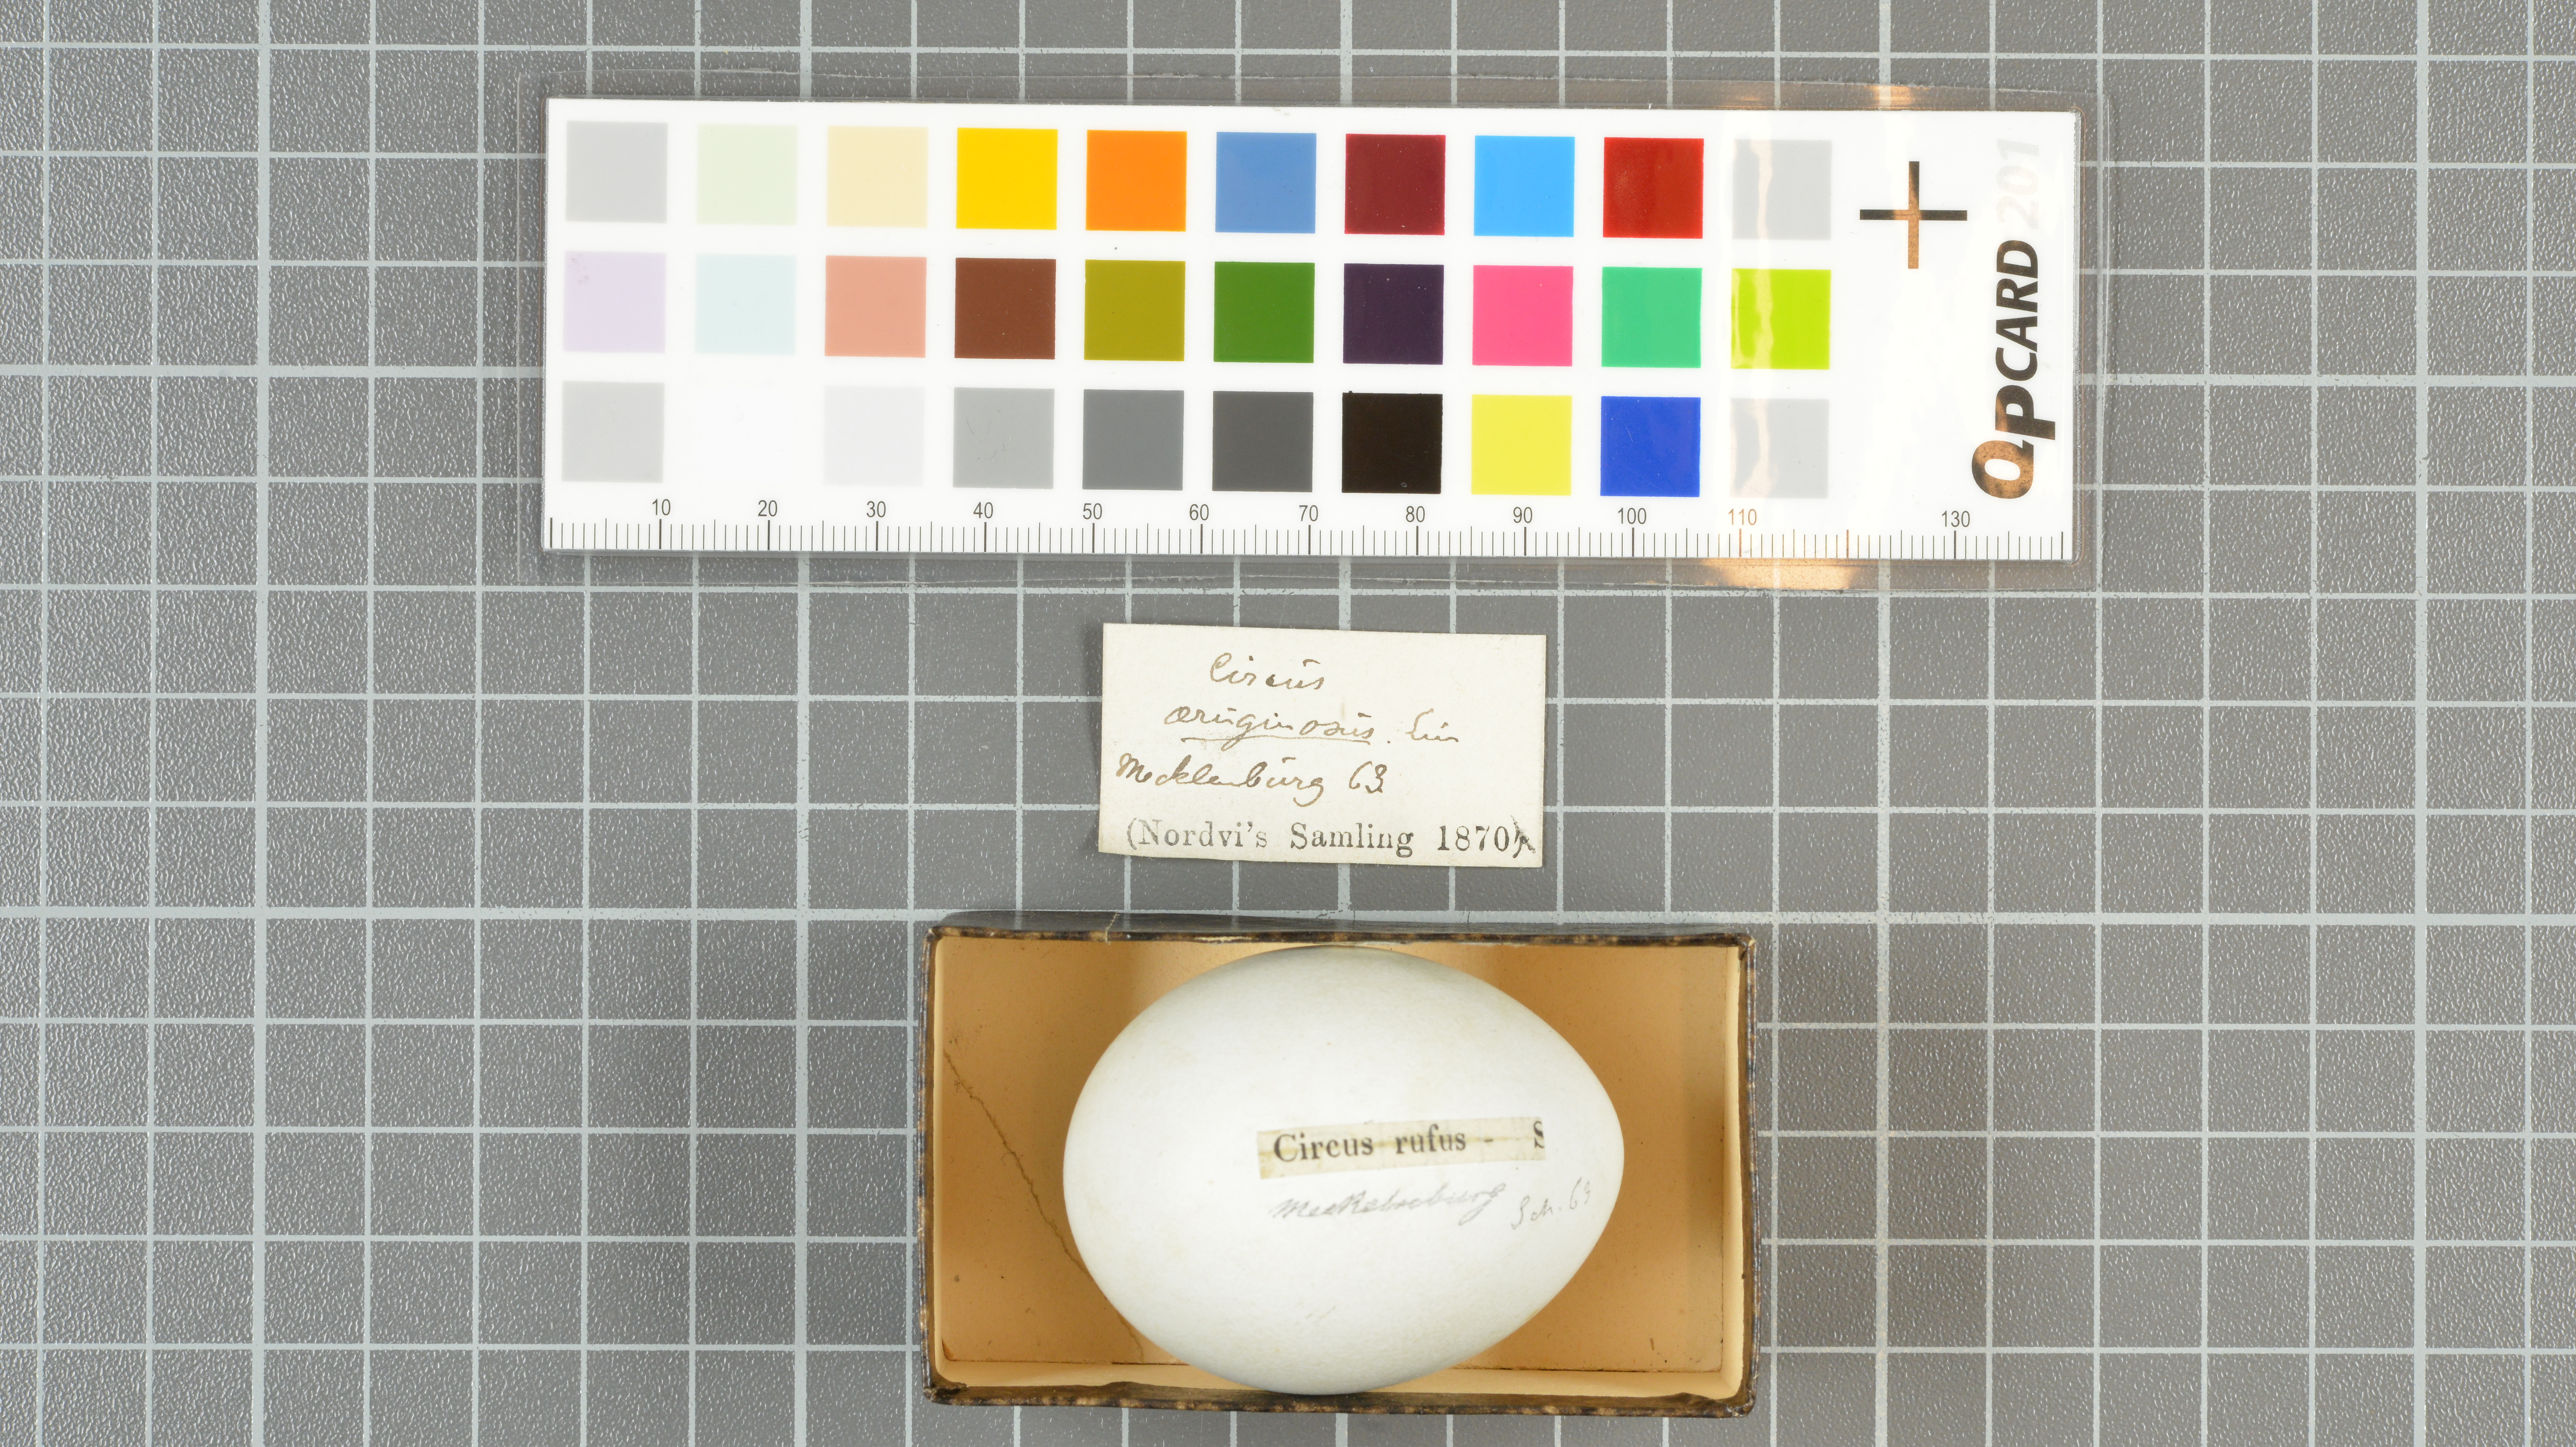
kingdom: Animalia
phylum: Chordata
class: Aves
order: Accipitriformes
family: Accipitridae
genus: Circus
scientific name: Circus aeruginosus
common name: Western marsh harrier
